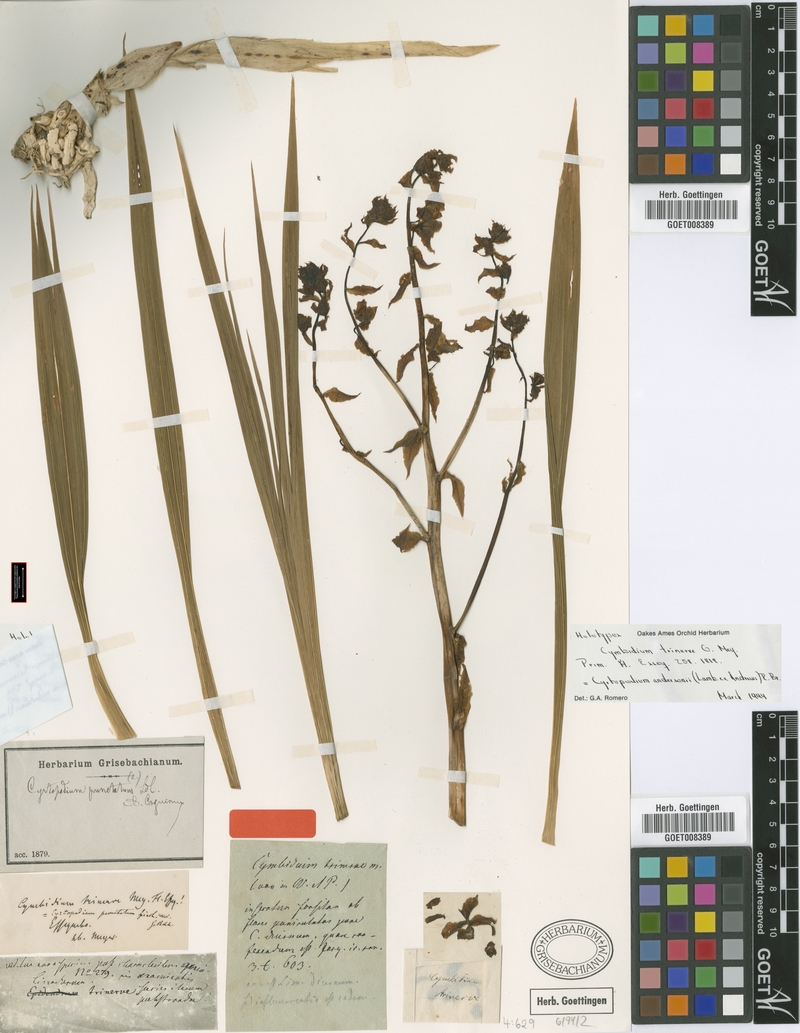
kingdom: Plantae
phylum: Tracheophyta
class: Liliopsida
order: Asparagales
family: Orchidaceae
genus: Cyrtopodium
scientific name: Cyrtopodium andersonii
